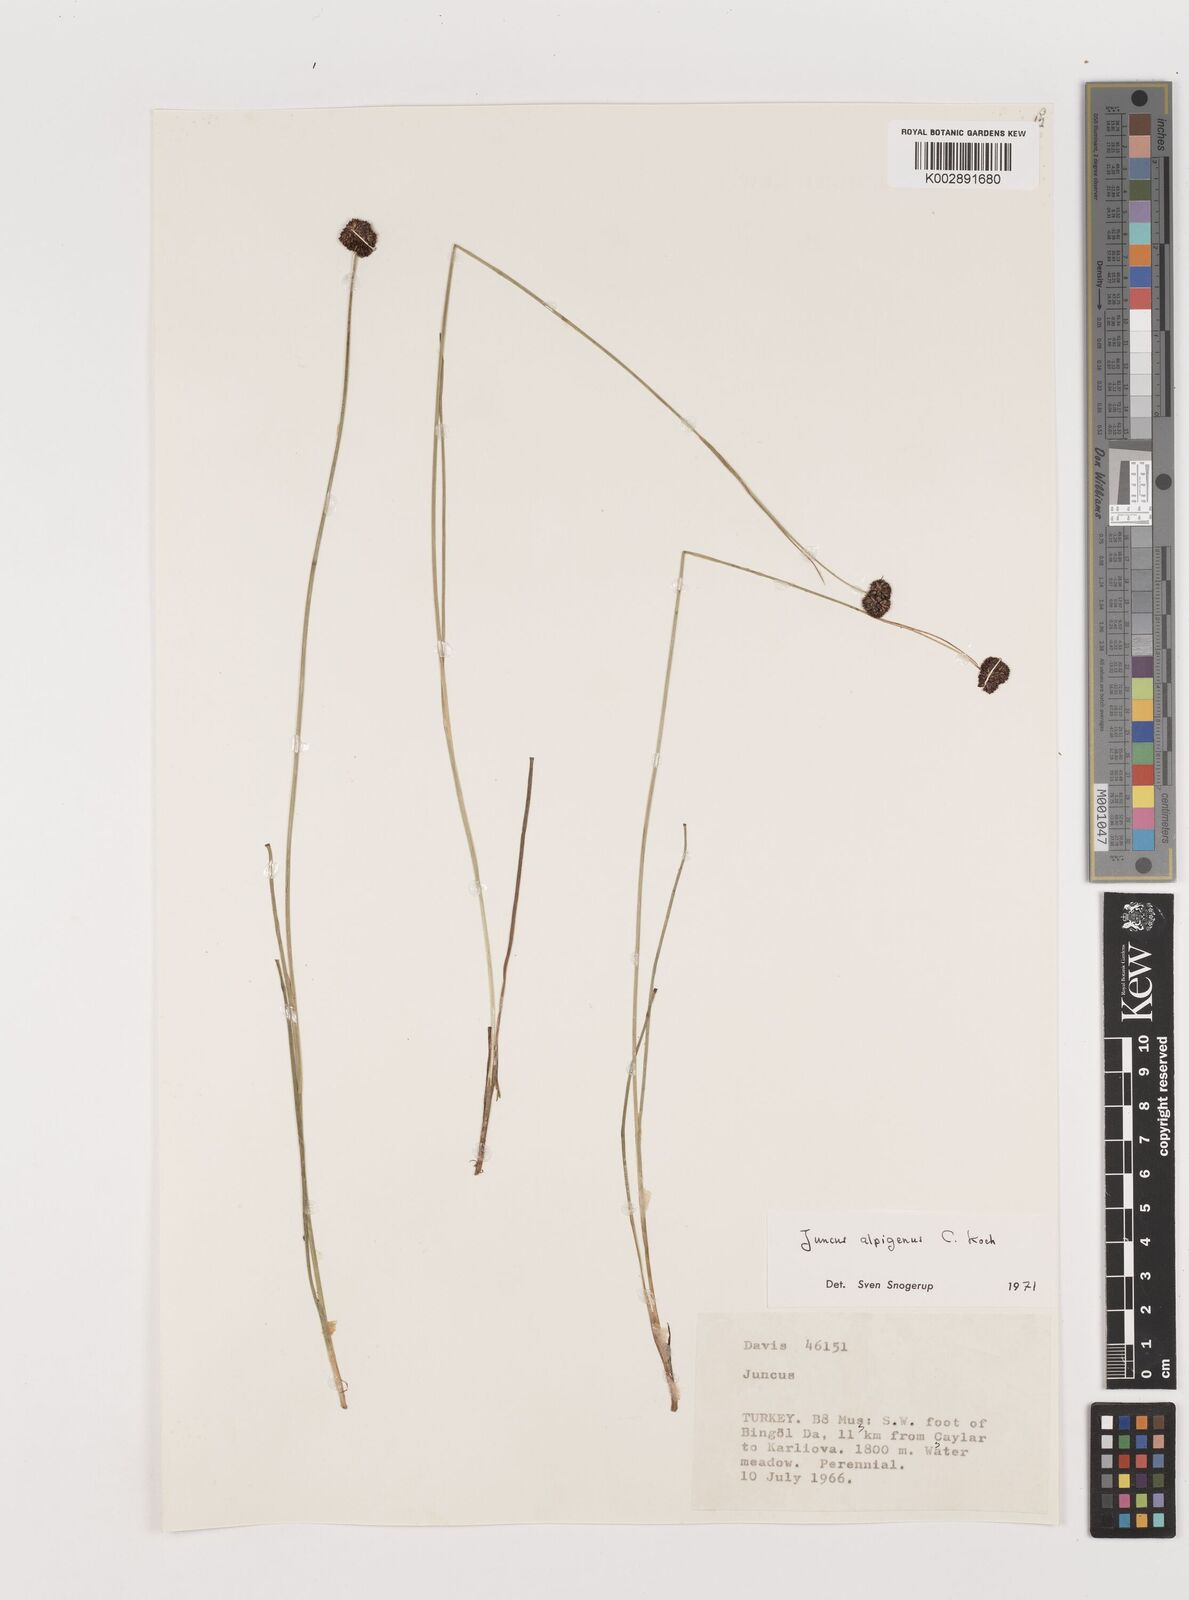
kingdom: Plantae
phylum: Tracheophyta
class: Liliopsida
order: Poales
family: Juncaceae
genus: Juncus
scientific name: Juncus alpigenus
